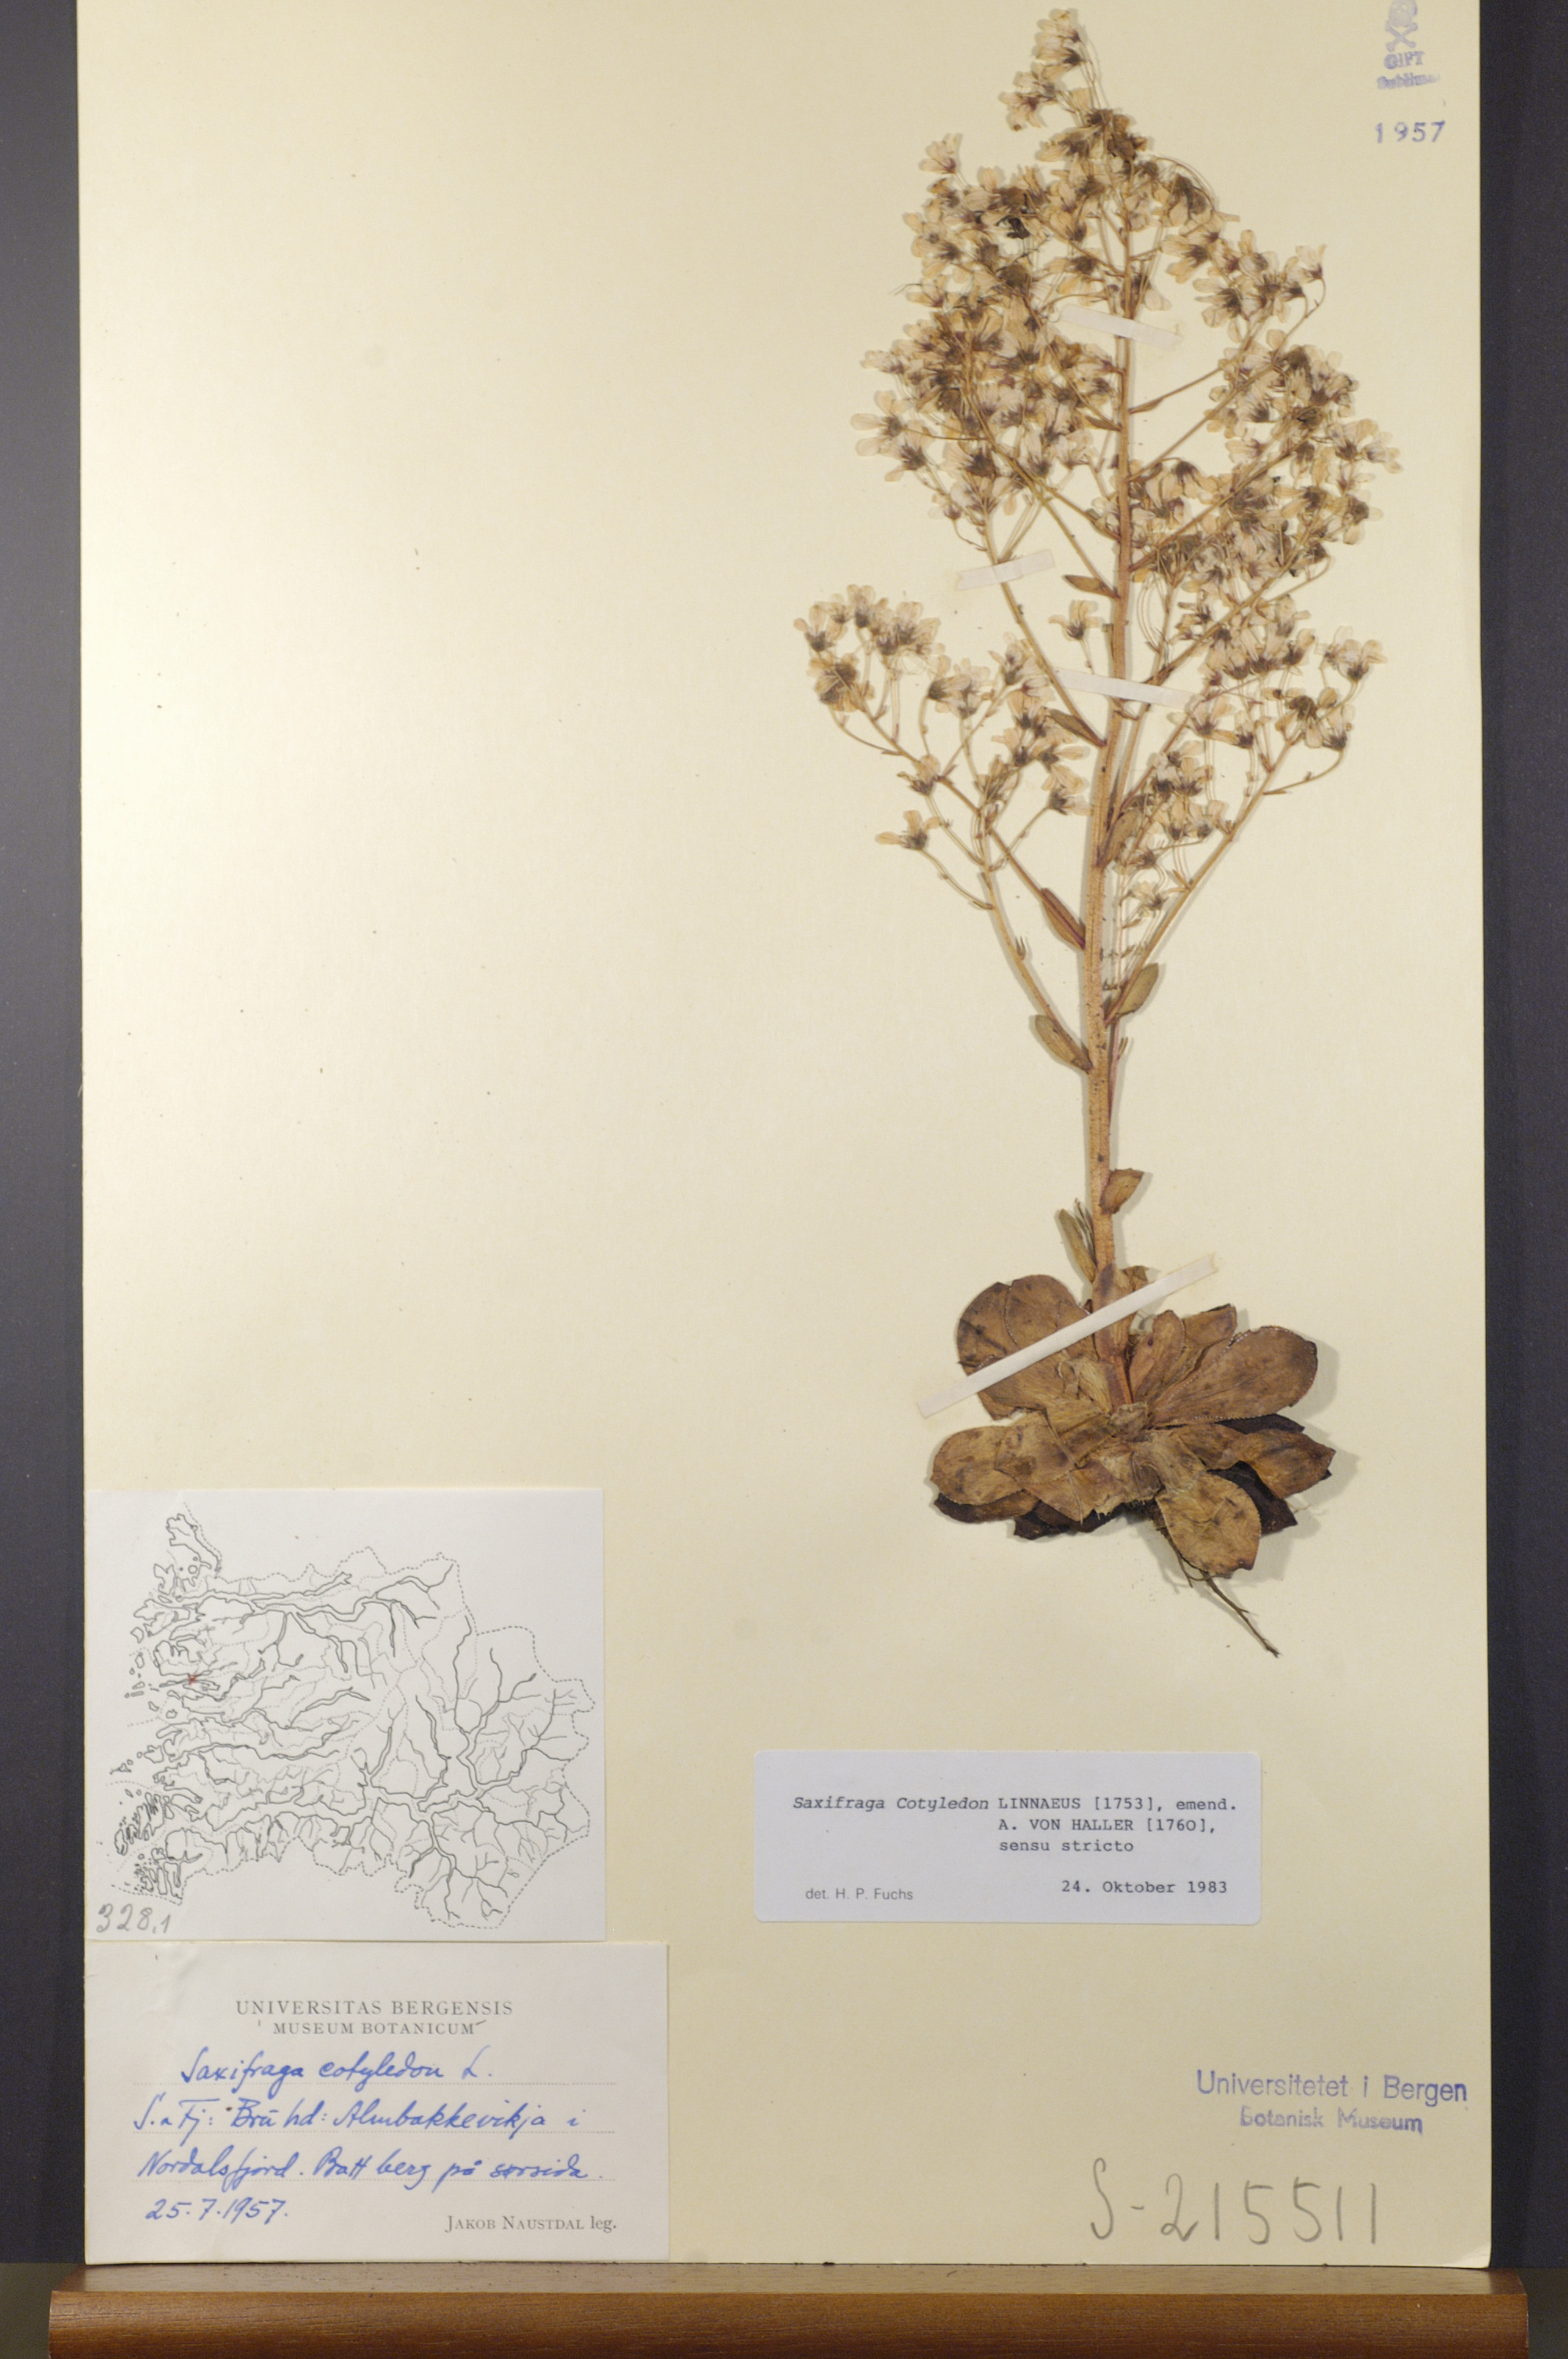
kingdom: Plantae
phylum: Tracheophyta
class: Magnoliopsida
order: Saxifragales
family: Saxifragaceae
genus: Saxifraga
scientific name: Saxifraga cotyledon
